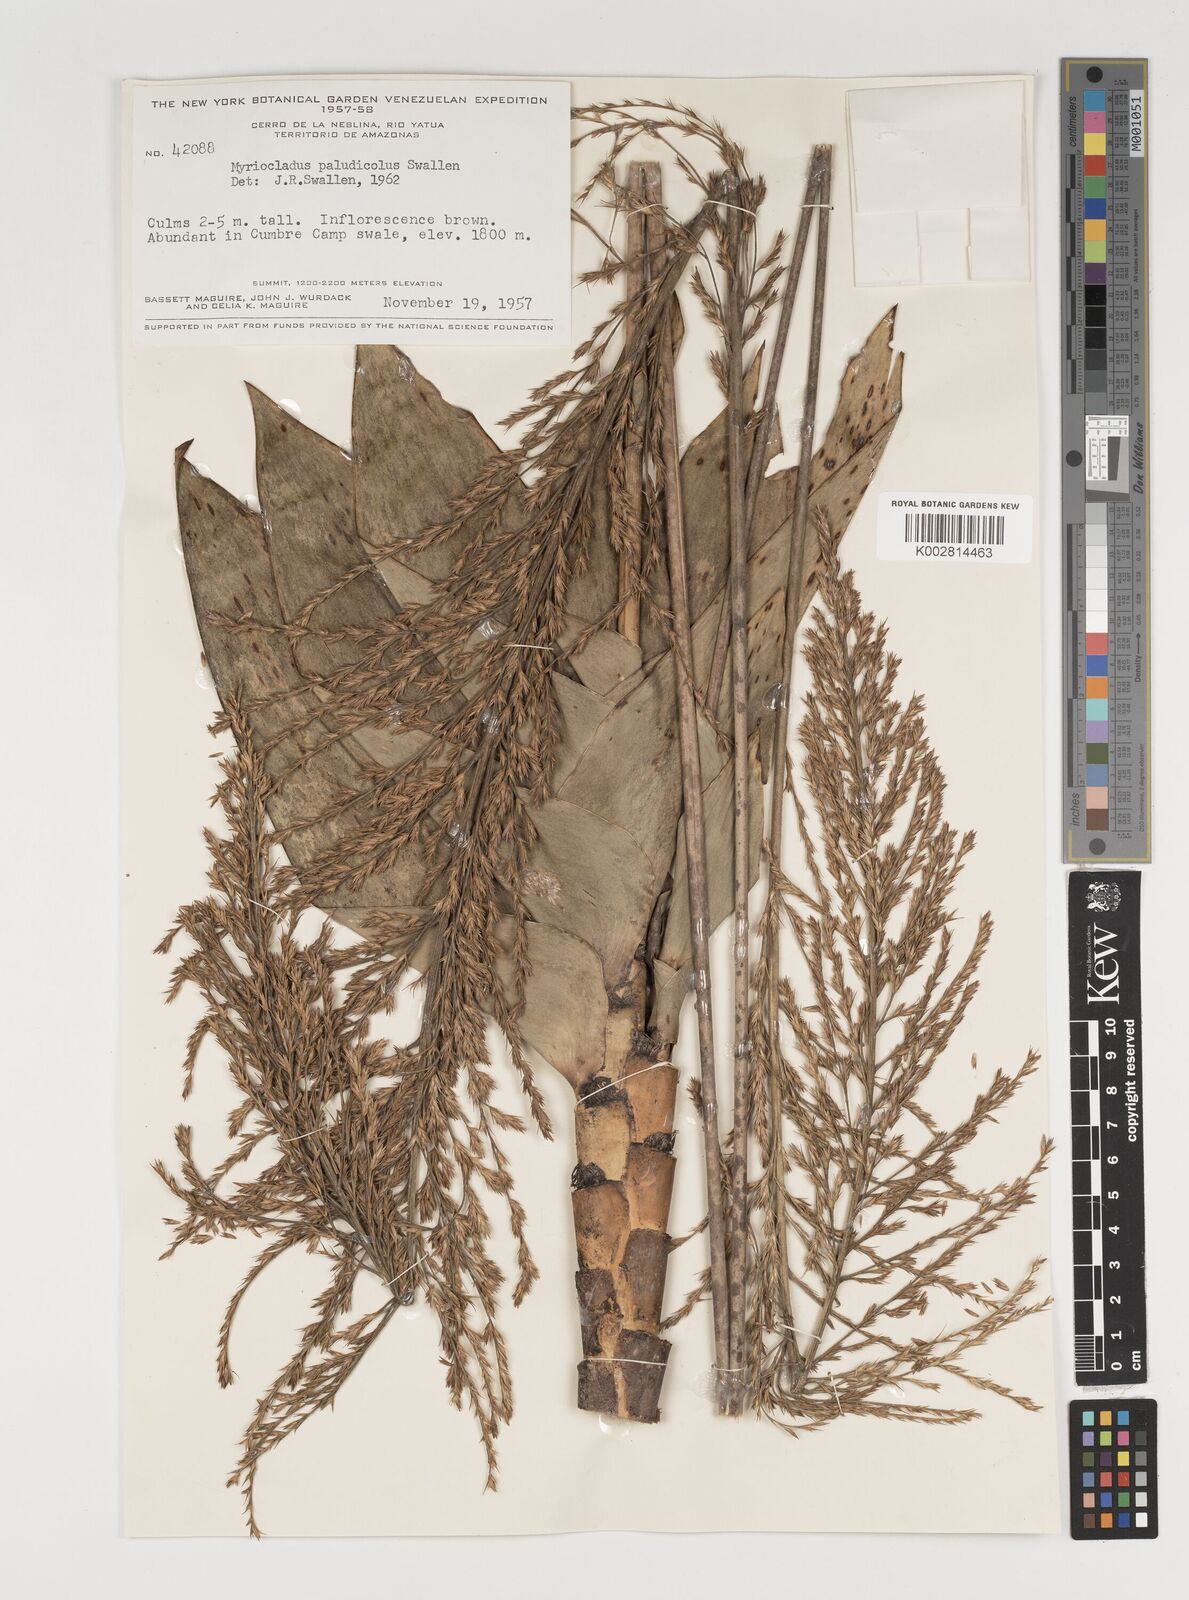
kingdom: Plantae
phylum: Tracheophyta
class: Liliopsida
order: Poales
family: Poaceae
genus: Myriocladus
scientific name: Myriocladus paludicola
